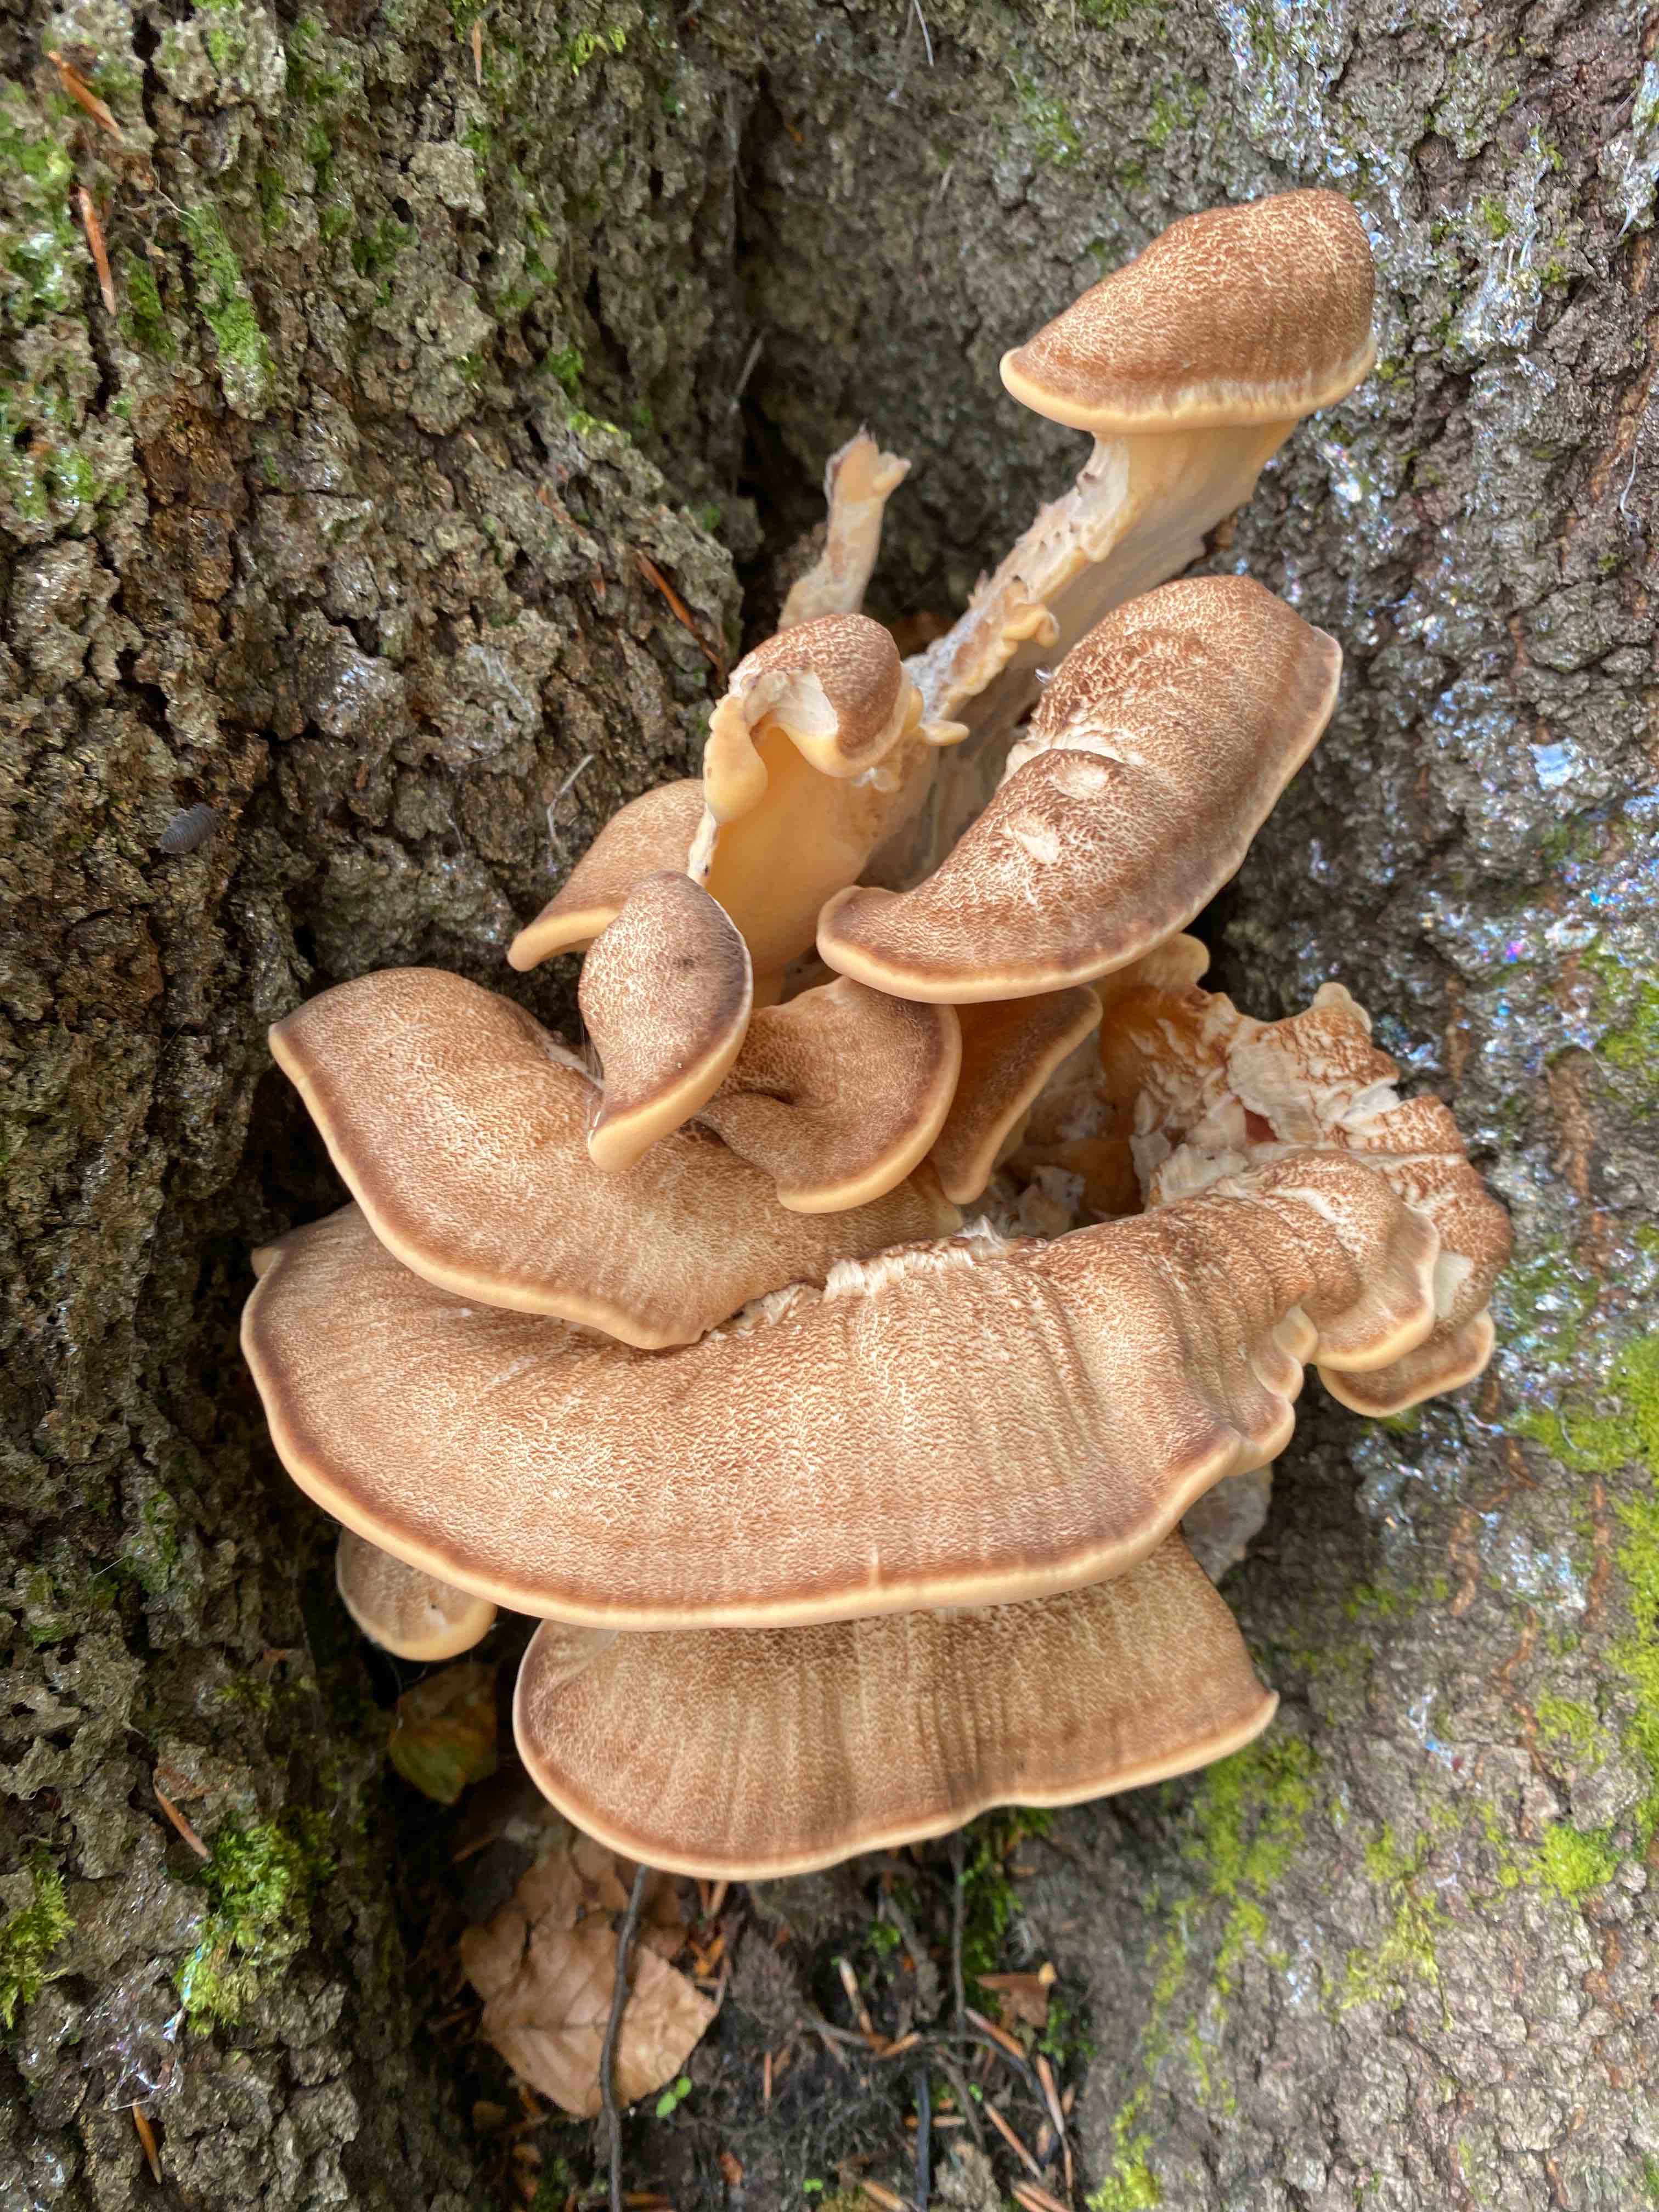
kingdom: Fungi
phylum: Basidiomycota
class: Agaricomycetes
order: Polyporales
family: Meripilaceae
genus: Meripilus
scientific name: Meripilus giganteus
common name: kæmpeporesvamp
